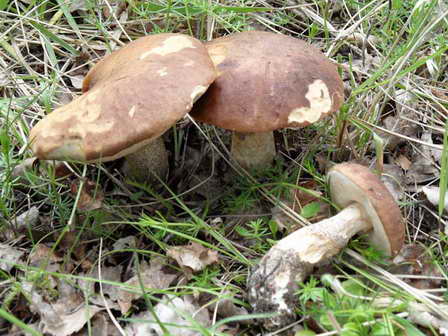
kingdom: Fungi
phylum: Basidiomycota
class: Agaricomycetes
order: Boletales
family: Boletaceae
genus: Leccinum
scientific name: Leccinum scabrum
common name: brun skælrørhat
